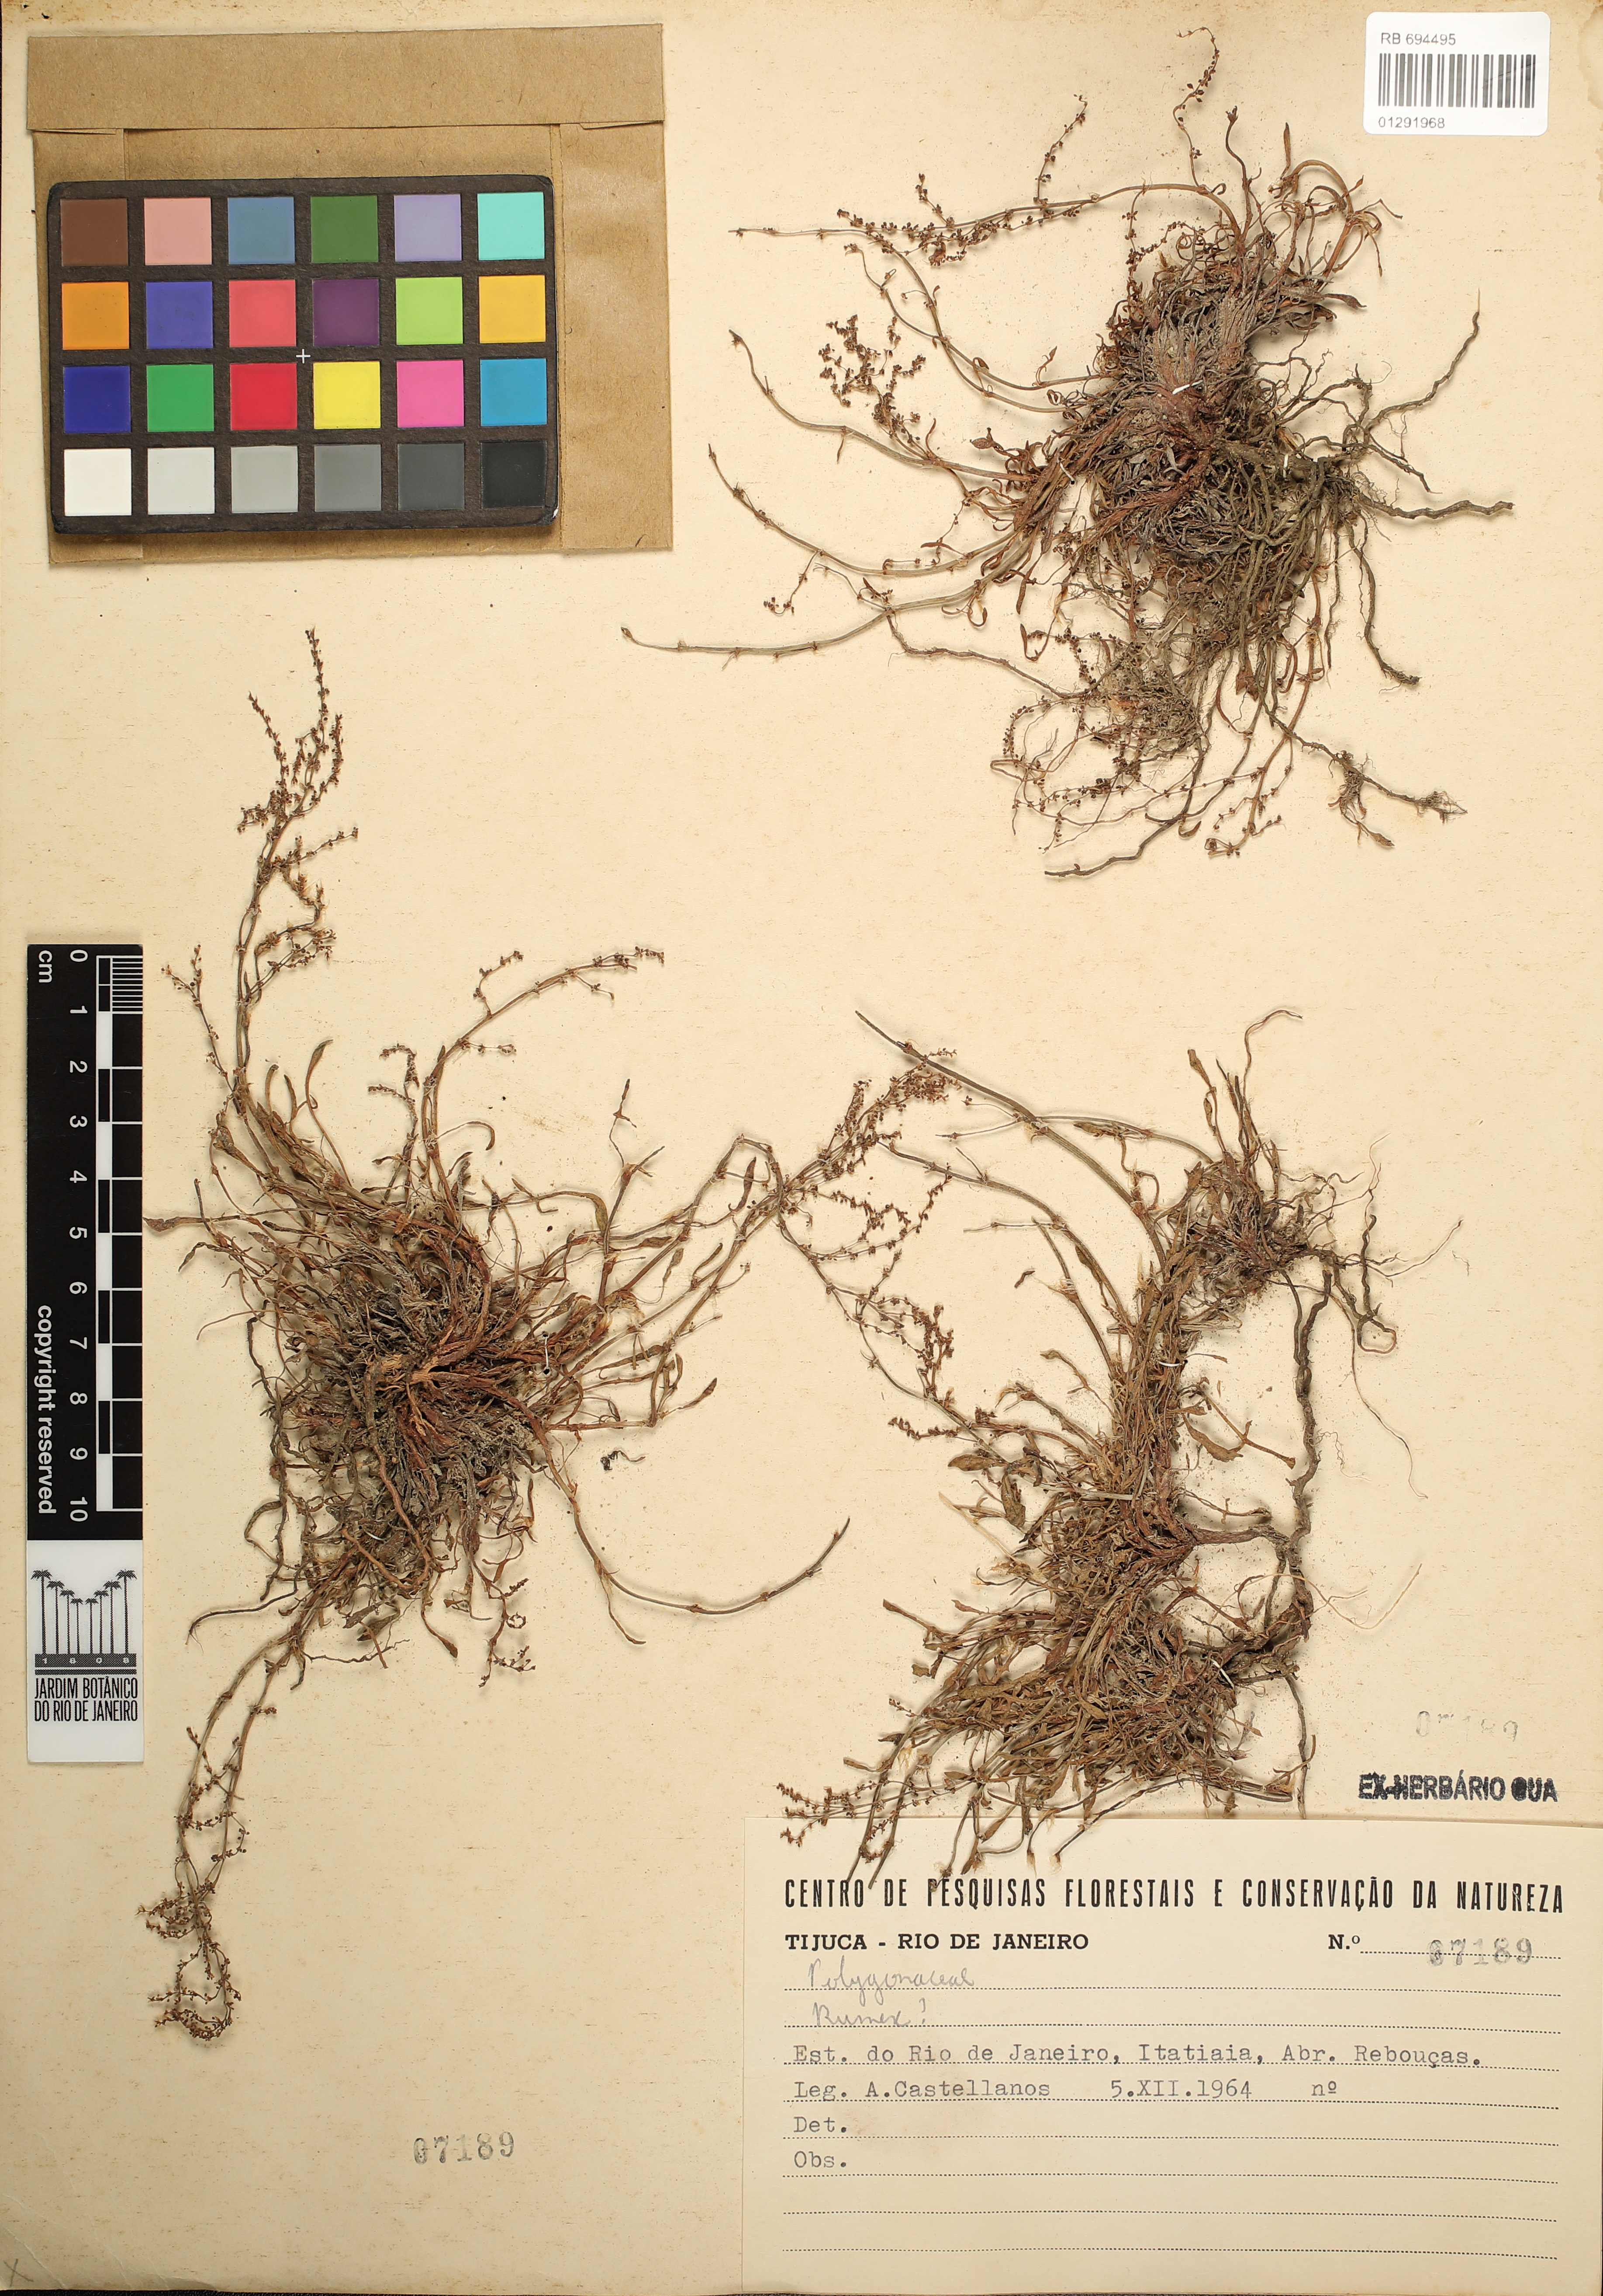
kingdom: Plantae
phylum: Tracheophyta
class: Magnoliopsida
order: Caryophyllales
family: Polygonaceae
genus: Rumex
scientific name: Rumex
